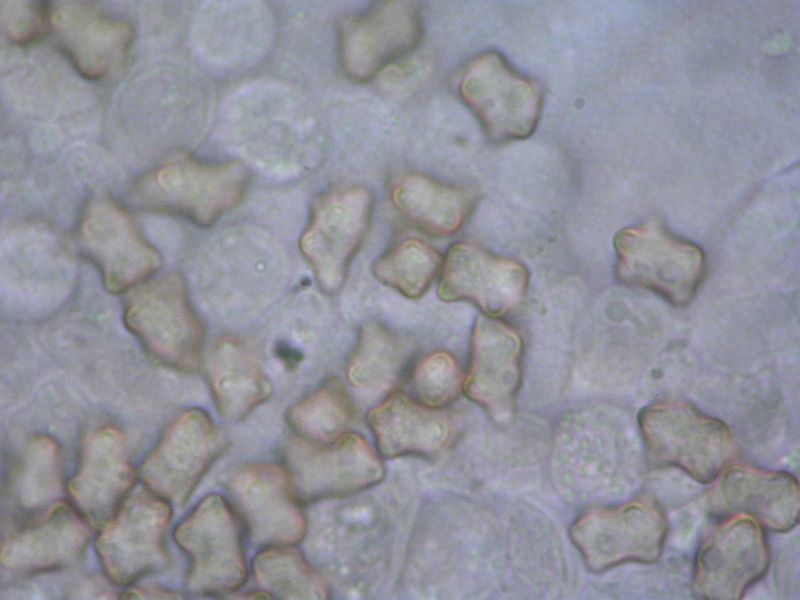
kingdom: Fungi
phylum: Basidiomycota
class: Agaricomycetes
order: Agaricales
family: Inocybaceae
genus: Inocybe
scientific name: Inocybe soluta
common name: lysbladet trævlhat
